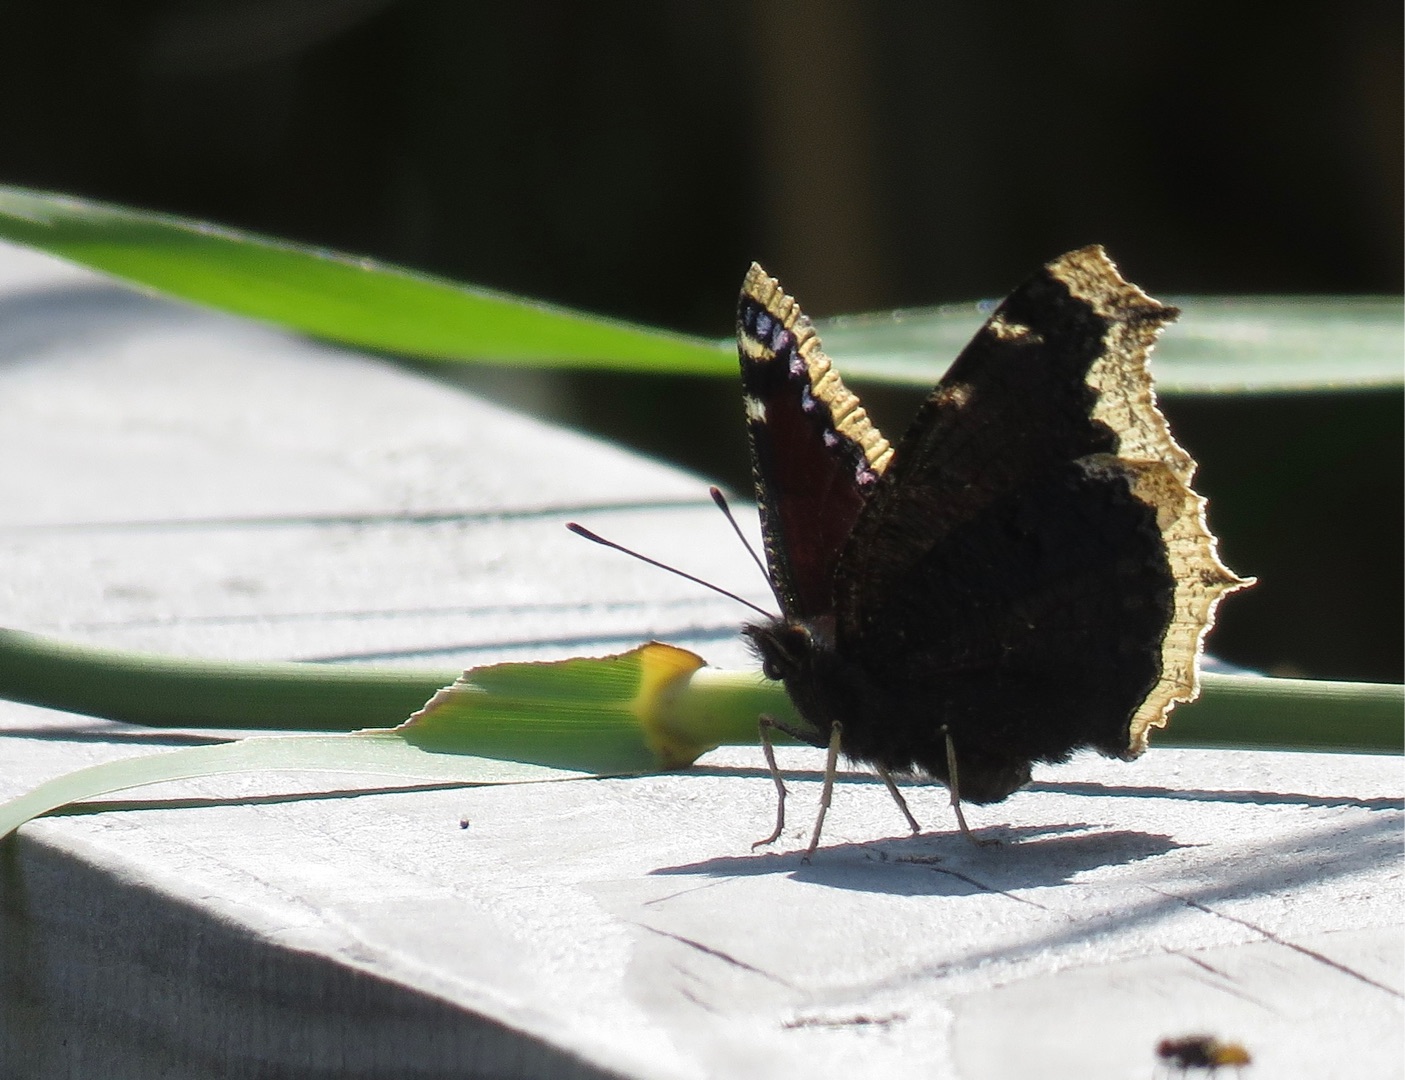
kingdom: Animalia
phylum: Arthropoda
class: Insecta
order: Lepidoptera
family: Nymphalidae
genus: Nymphalis
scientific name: Nymphalis antiopa
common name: Sørgekåbe
